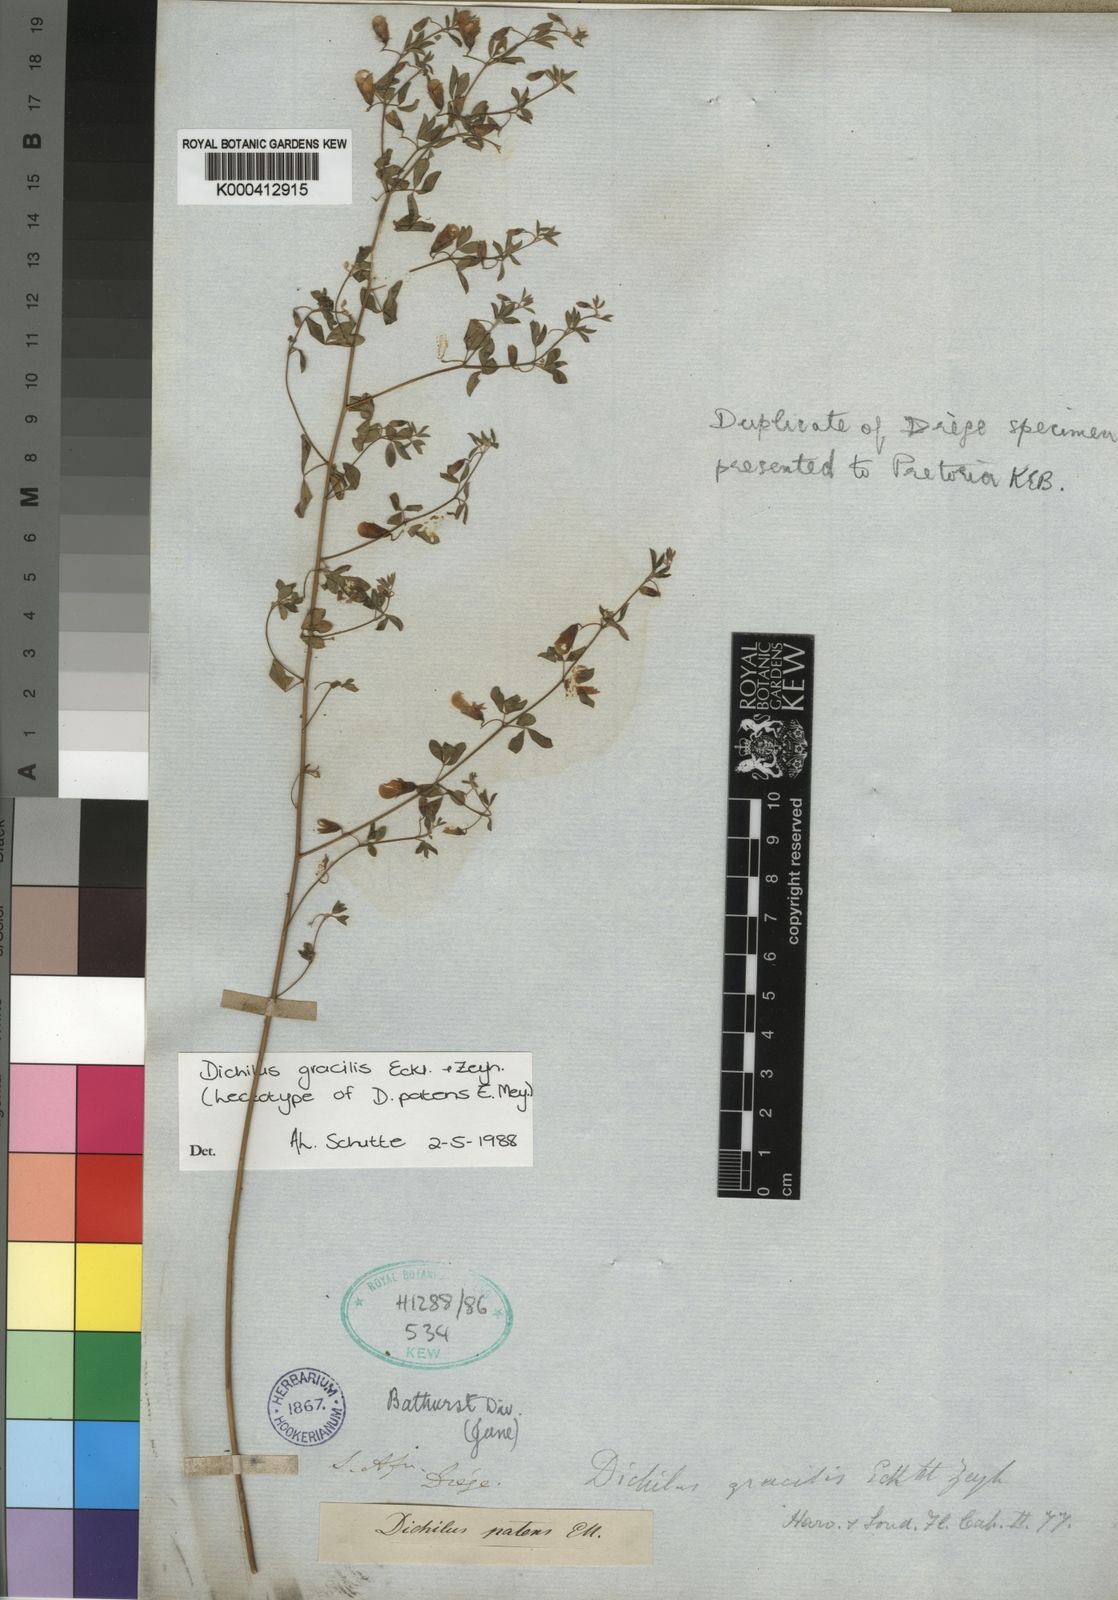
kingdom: Plantae
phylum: Tracheophyta
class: Magnoliopsida
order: Fabales
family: Fabaceae
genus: Dichilus
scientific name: Dichilus gracilis
